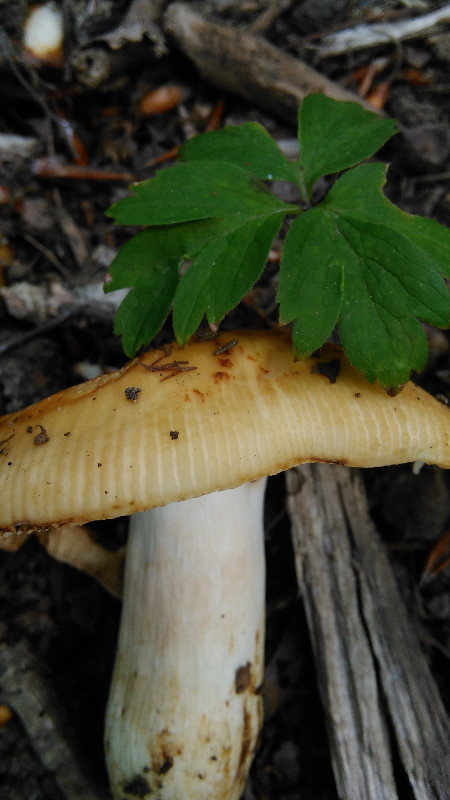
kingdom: Fungi
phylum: Basidiomycota
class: Agaricomycetes
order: Russulales
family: Russulaceae
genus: Russula
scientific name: Russula grata
